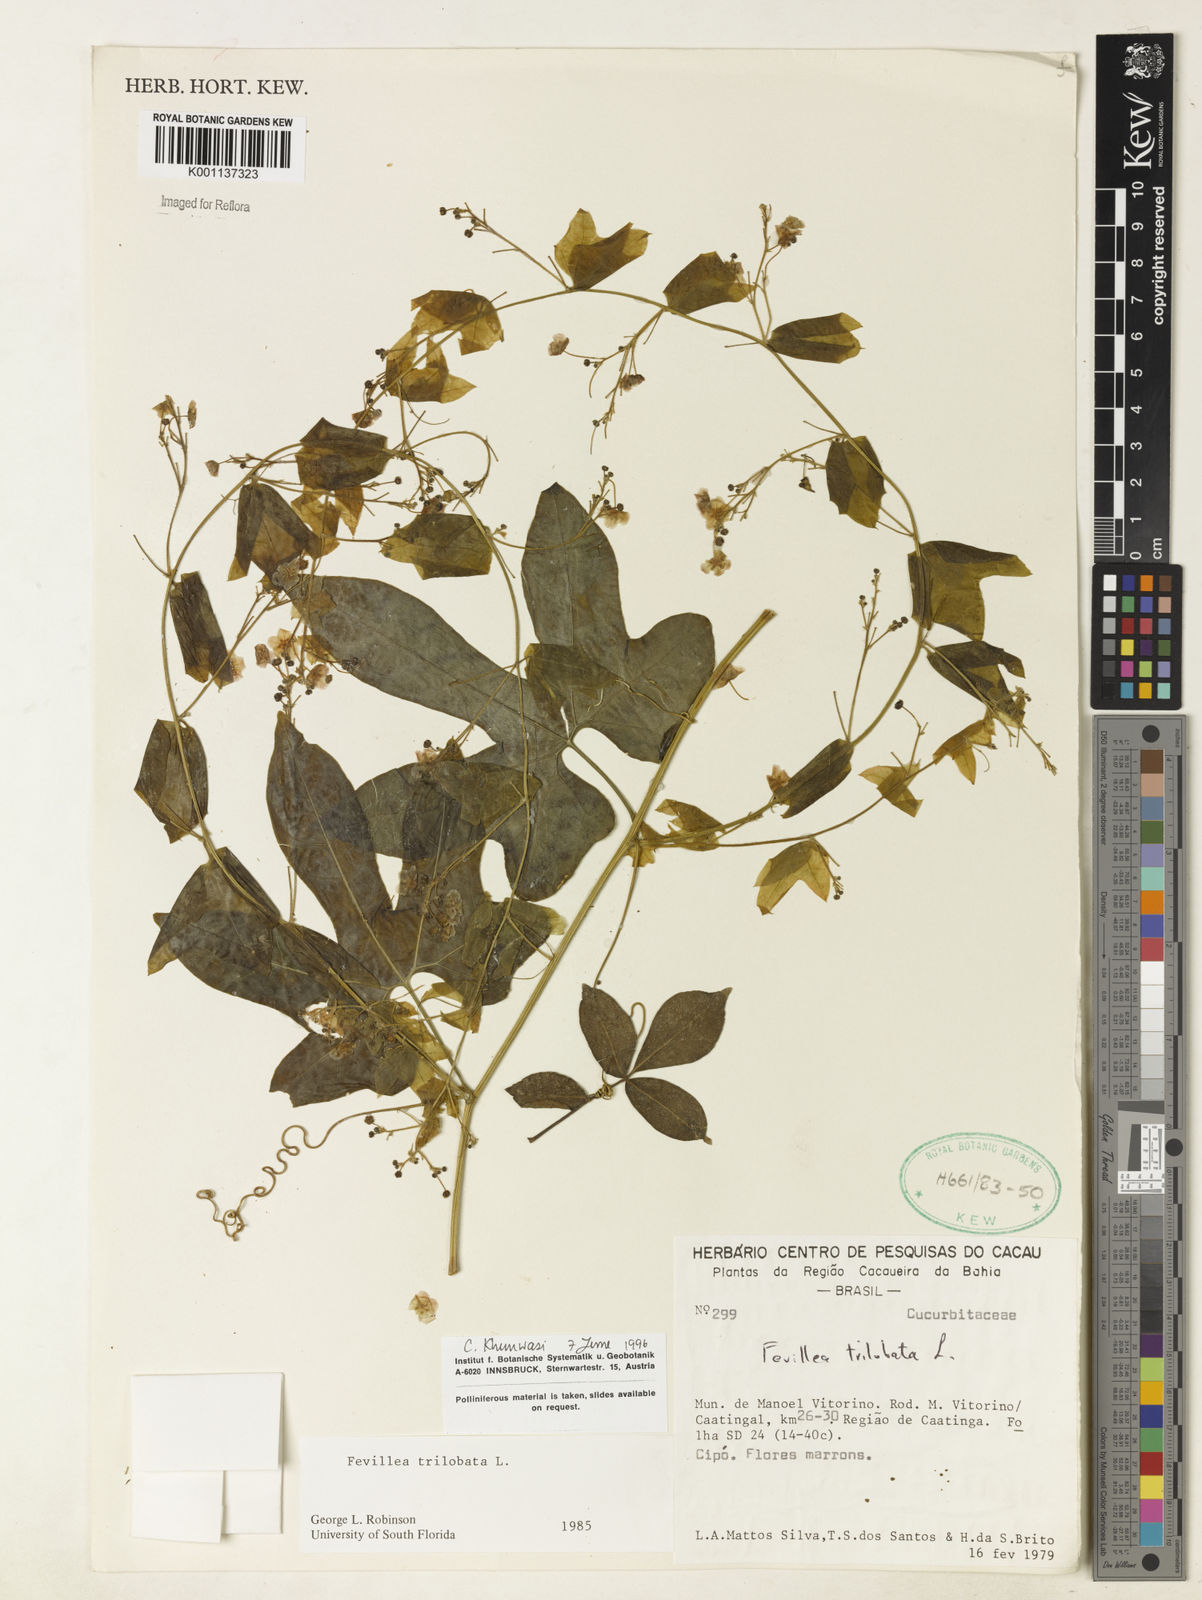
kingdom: Plantae
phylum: Tracheophyta
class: Magnoliopsida
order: Cucurbitales
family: Cucurbitaceae
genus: Fevillea
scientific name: Fevillea trilobata
